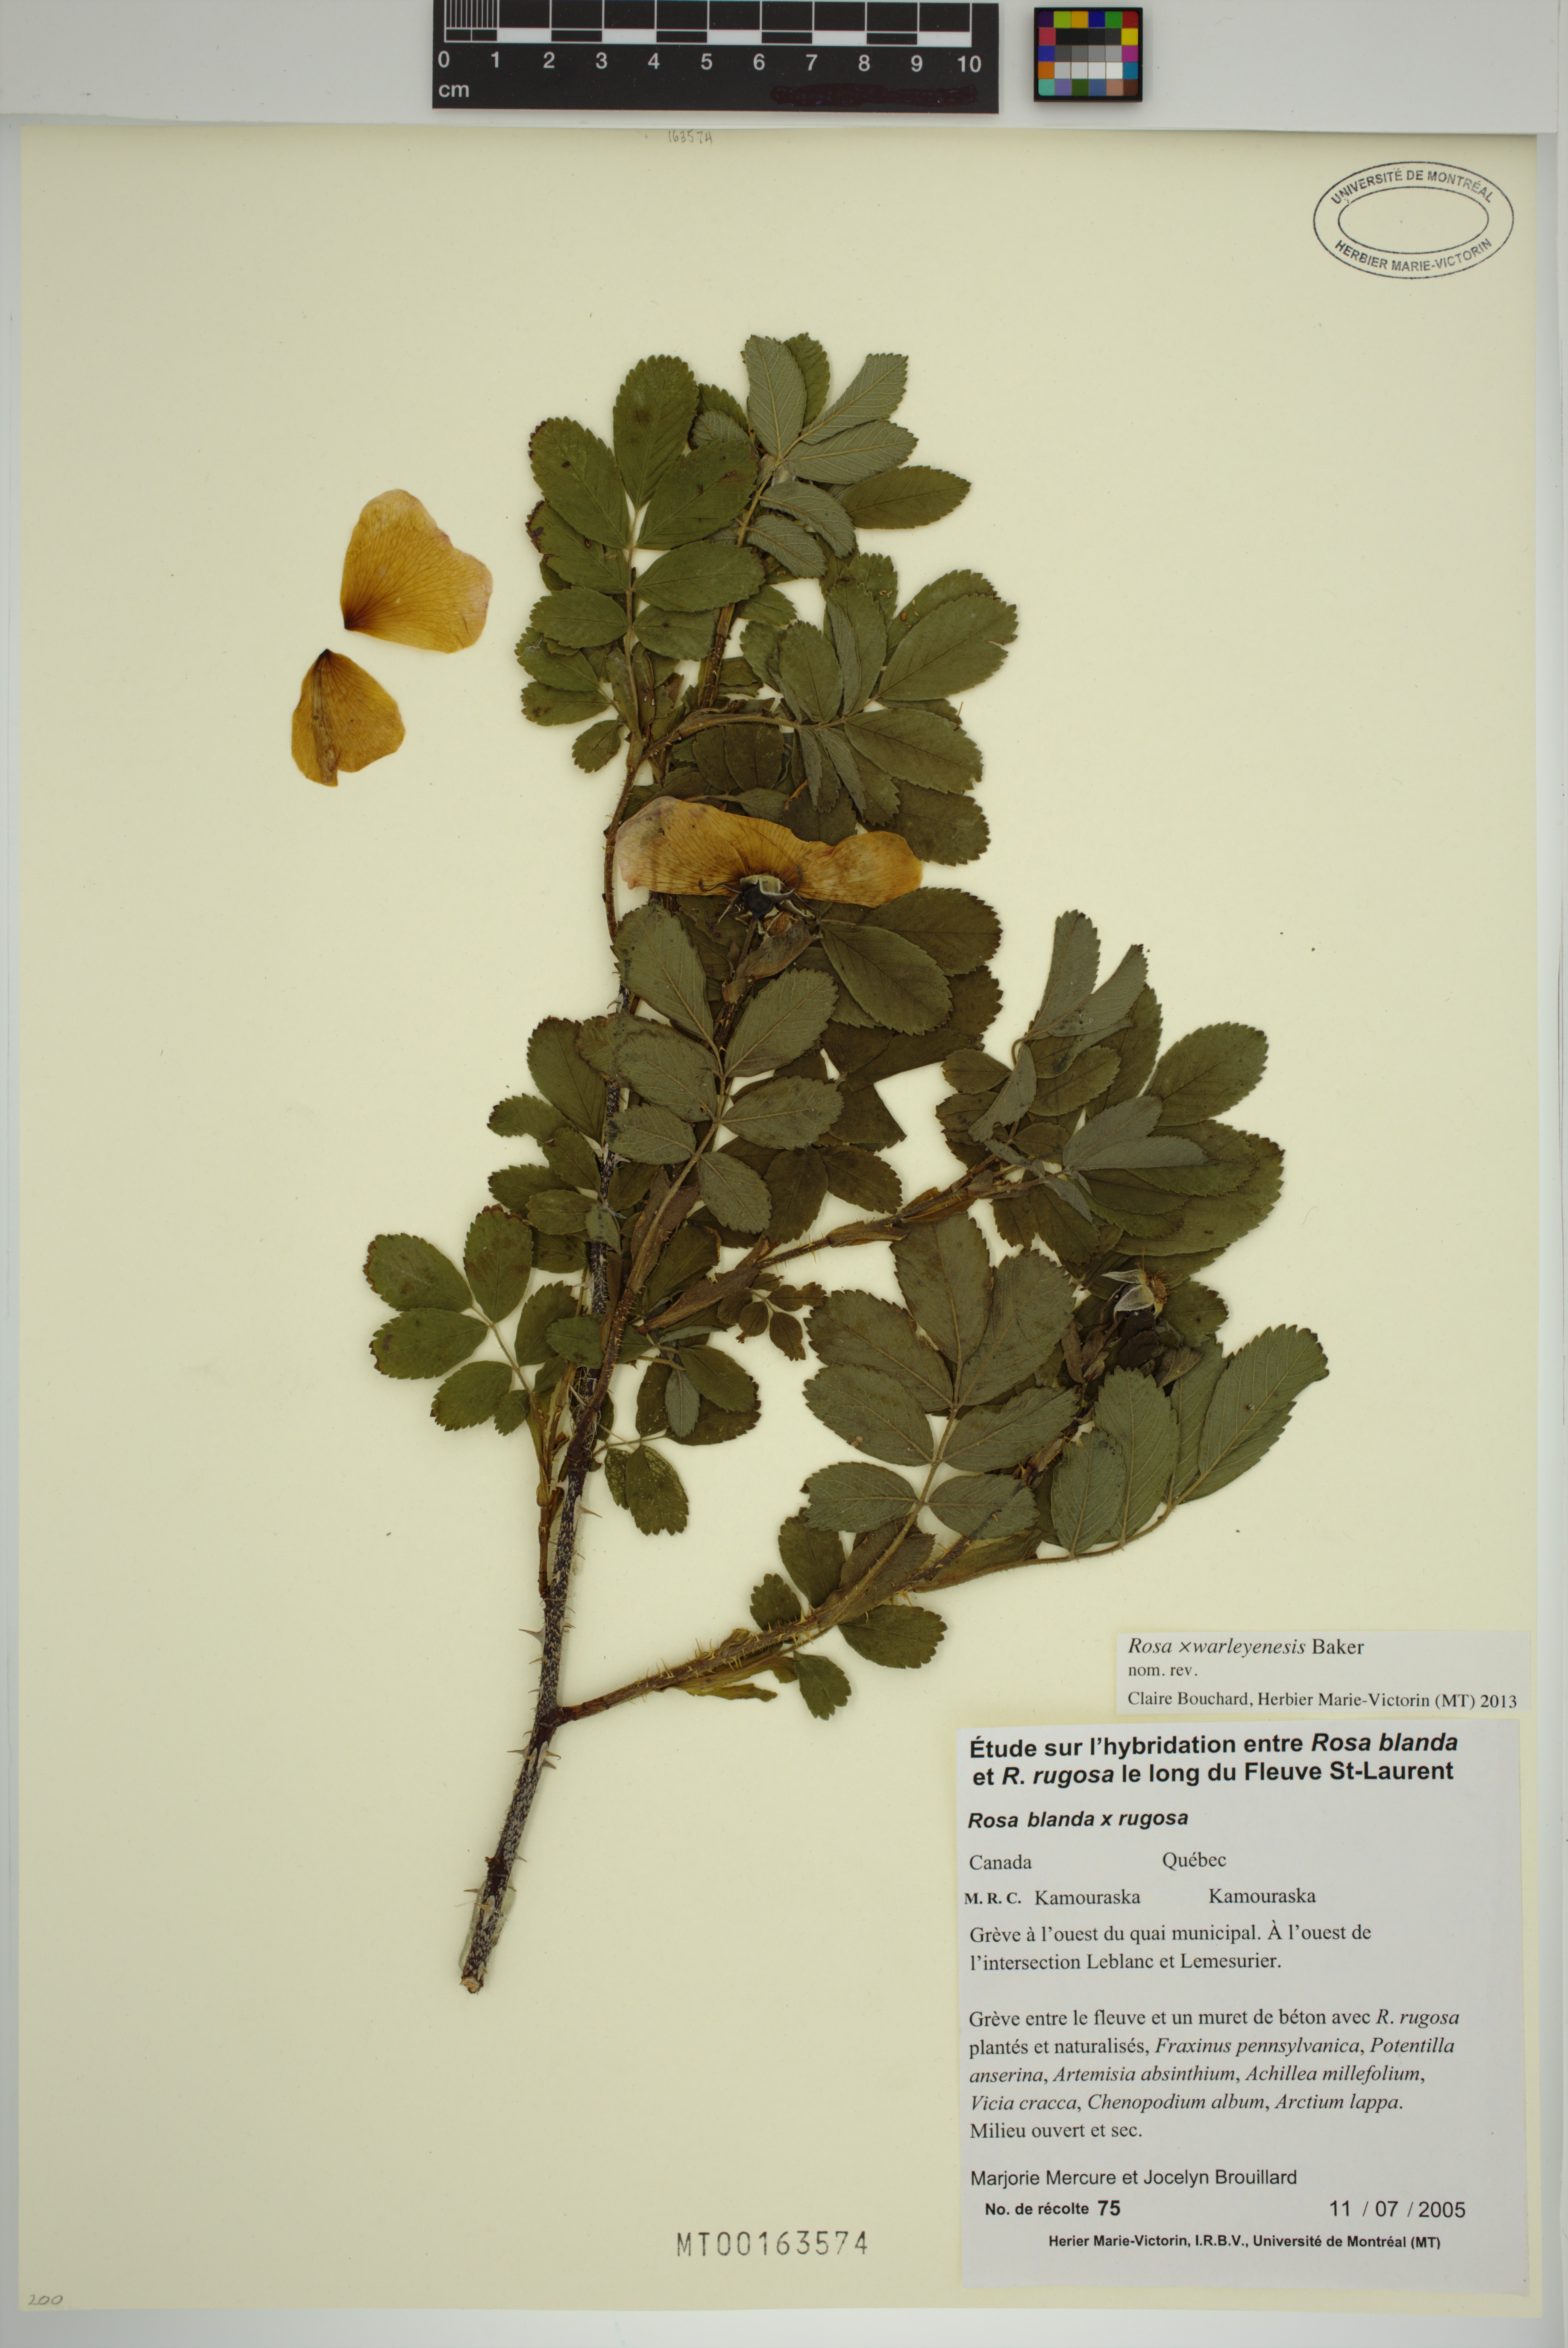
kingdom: Plantae
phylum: Tracheophyta
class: Magnoliopsida
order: Rosales
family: Rosaceae
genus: Rosa
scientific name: Rosa warleyensis
